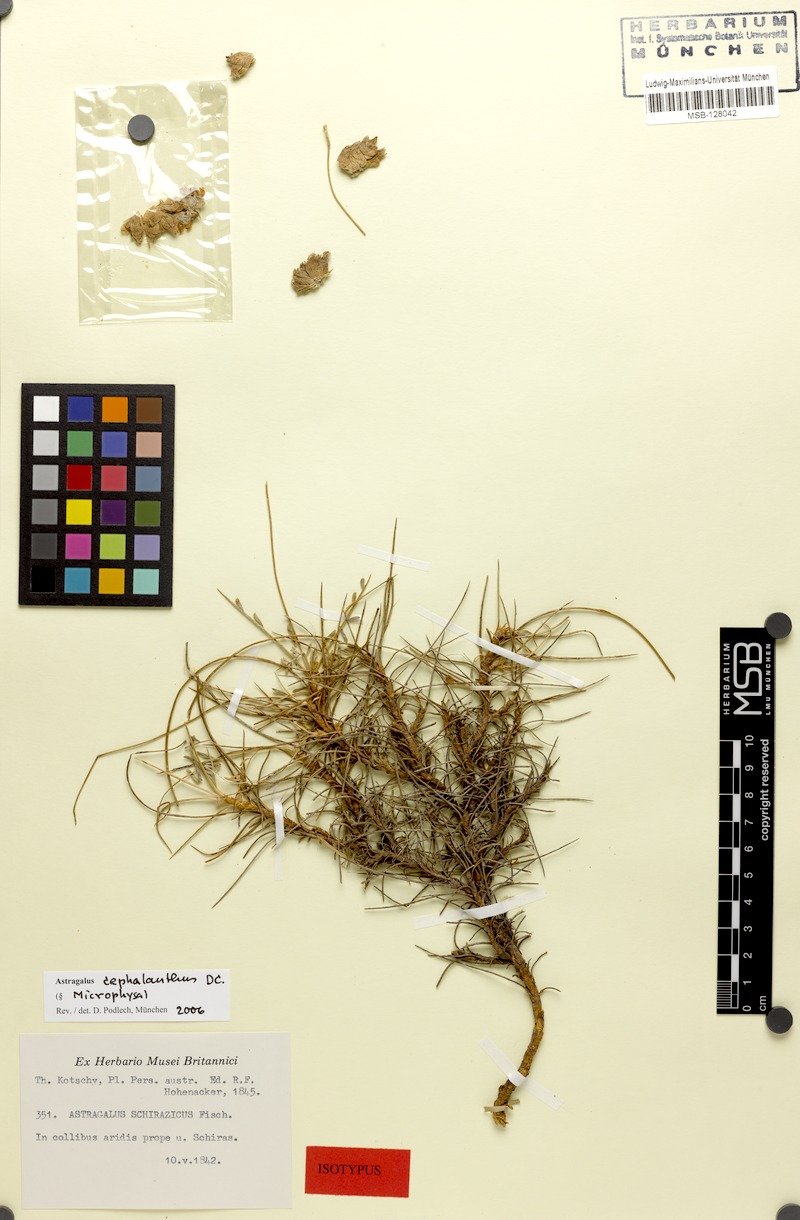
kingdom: Plantae
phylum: Tracheophyta
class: Magnoliopsida
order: Fabales
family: Fabaceae
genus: Astragalus
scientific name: Astragalus cephalanthus
